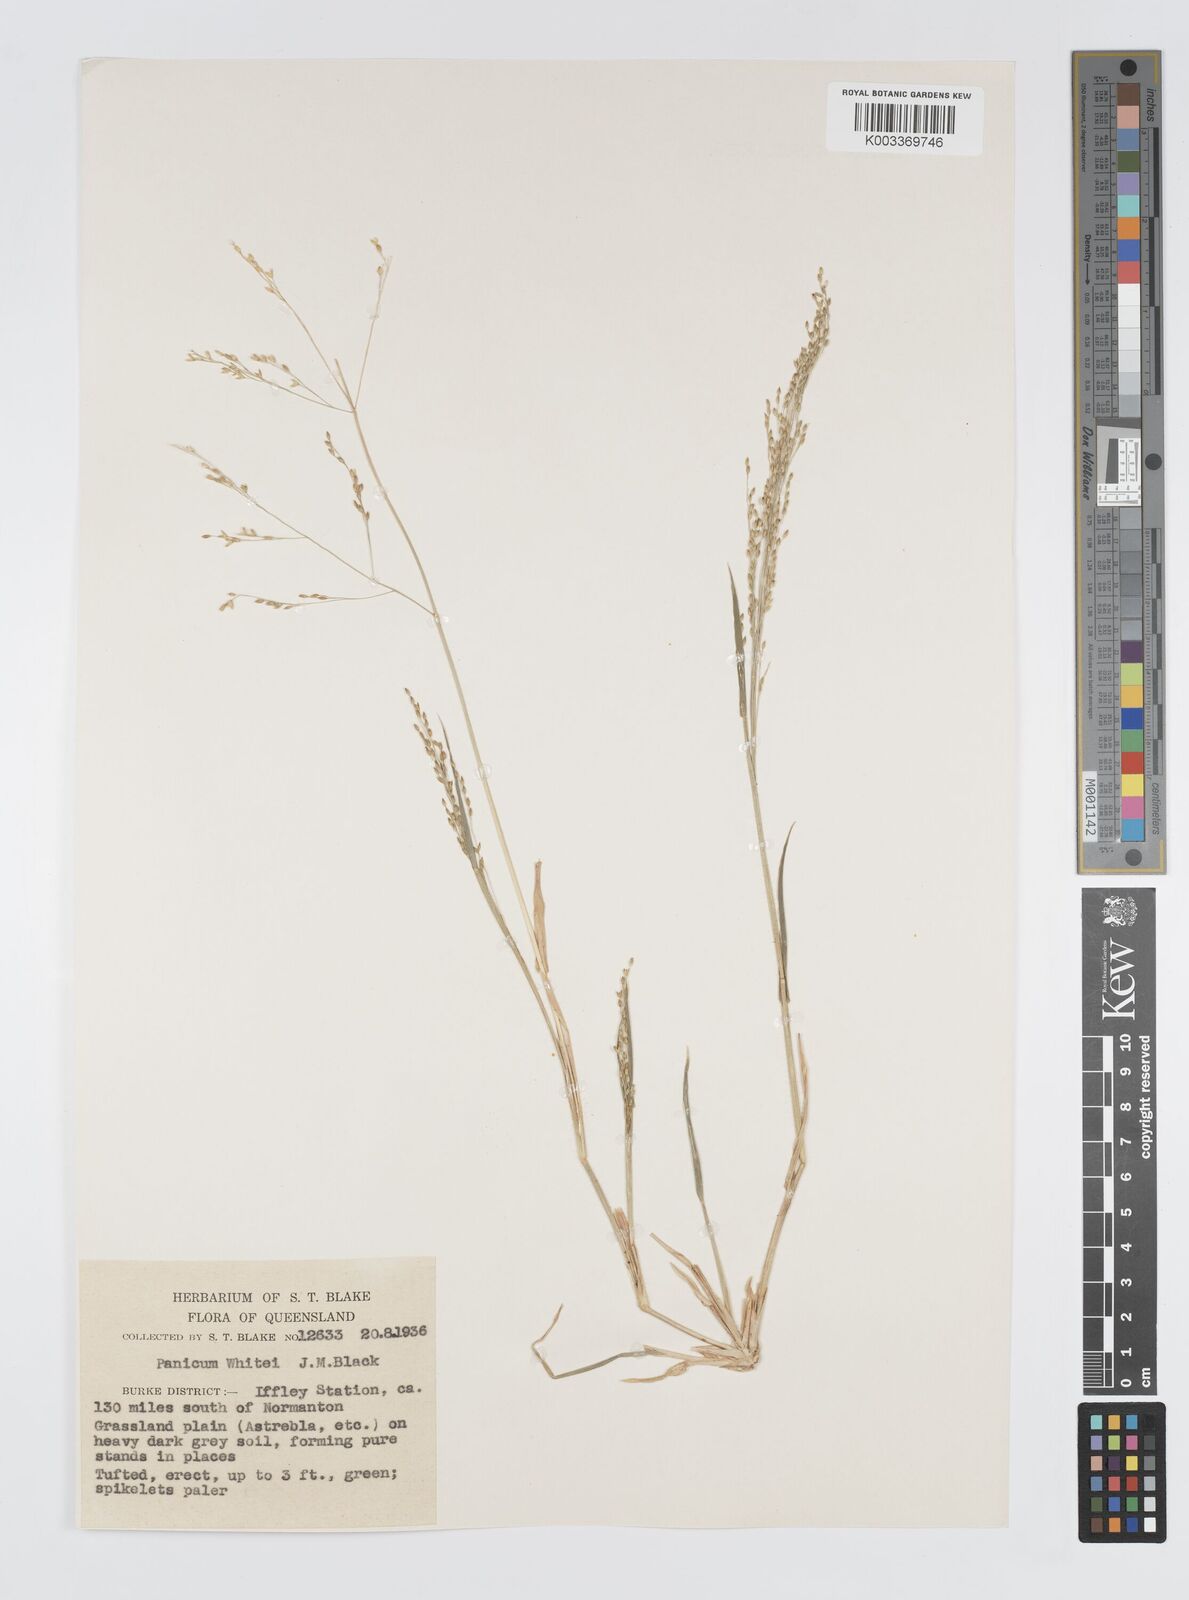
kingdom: Plantae
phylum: Tracheophyta
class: Liliopsida
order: Poales
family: Poaceae
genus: Panicum
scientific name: Panicum laevinode
